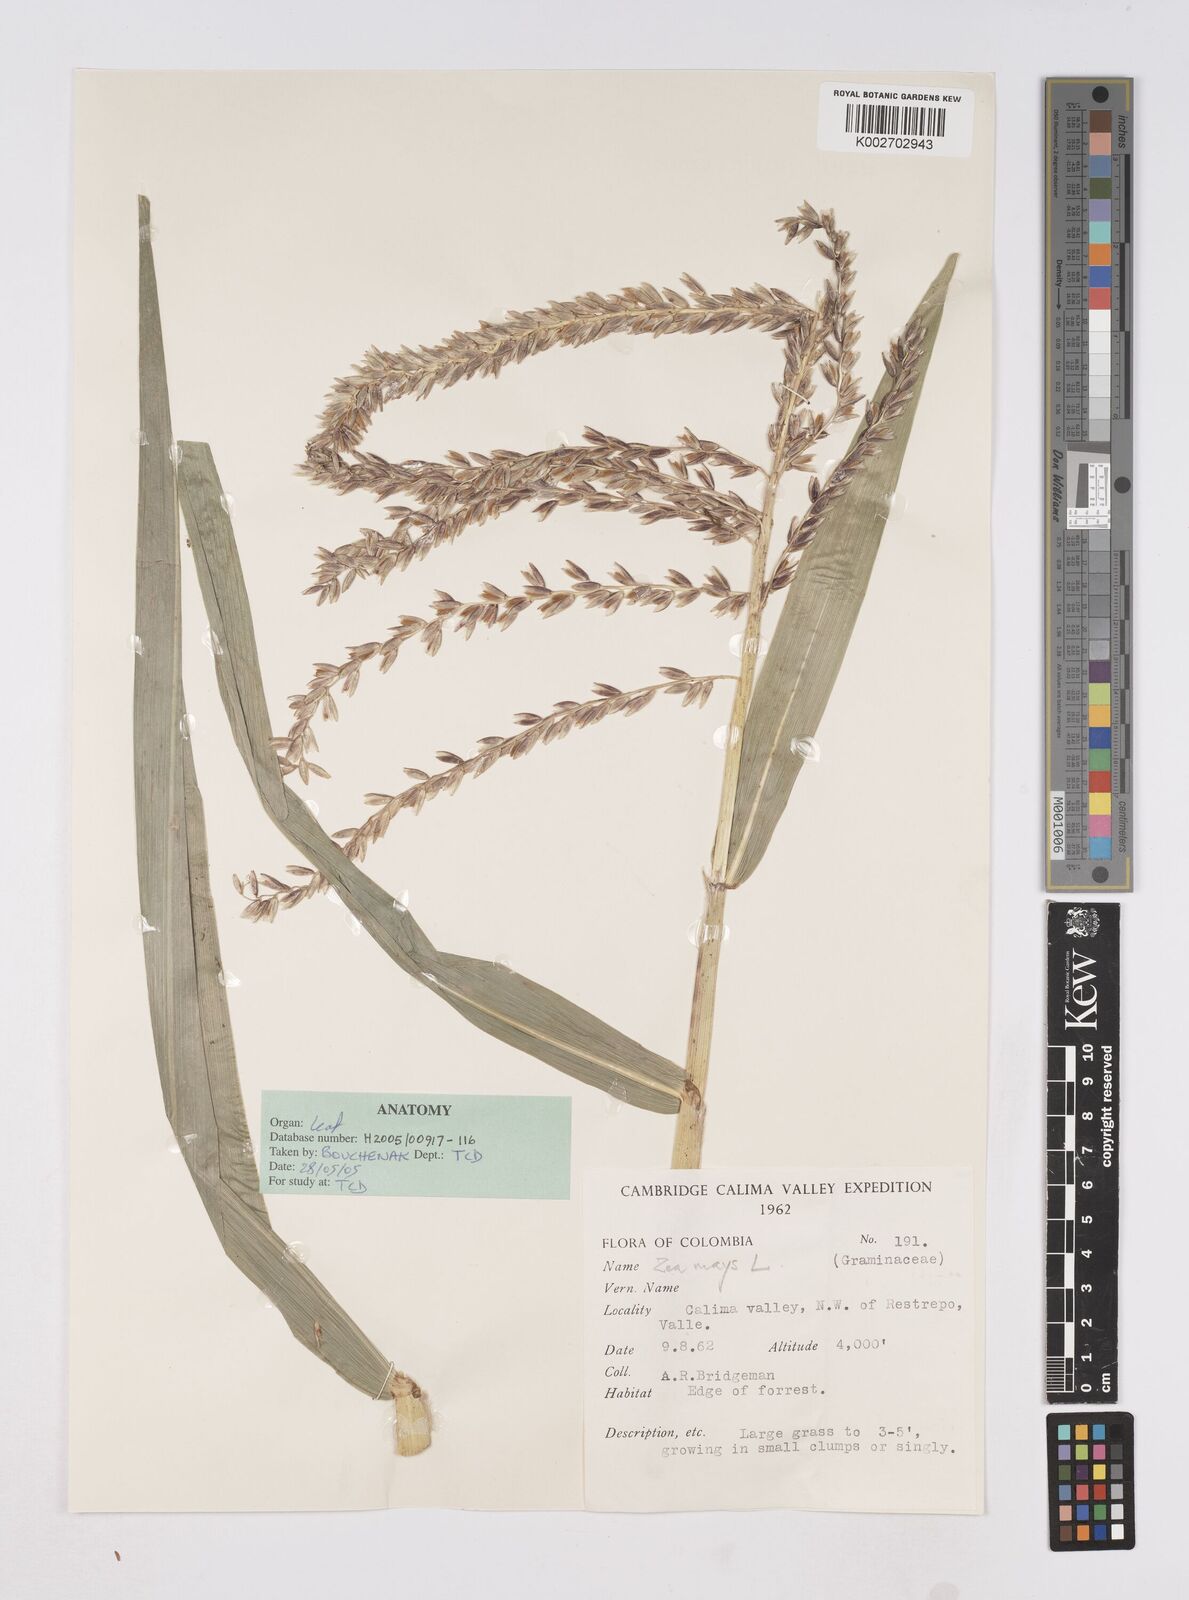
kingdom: Plantae
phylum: Tracheophyta
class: Liliopsida
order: Poales
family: Poaceae
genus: Zea
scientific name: Zea mays
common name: Maize
